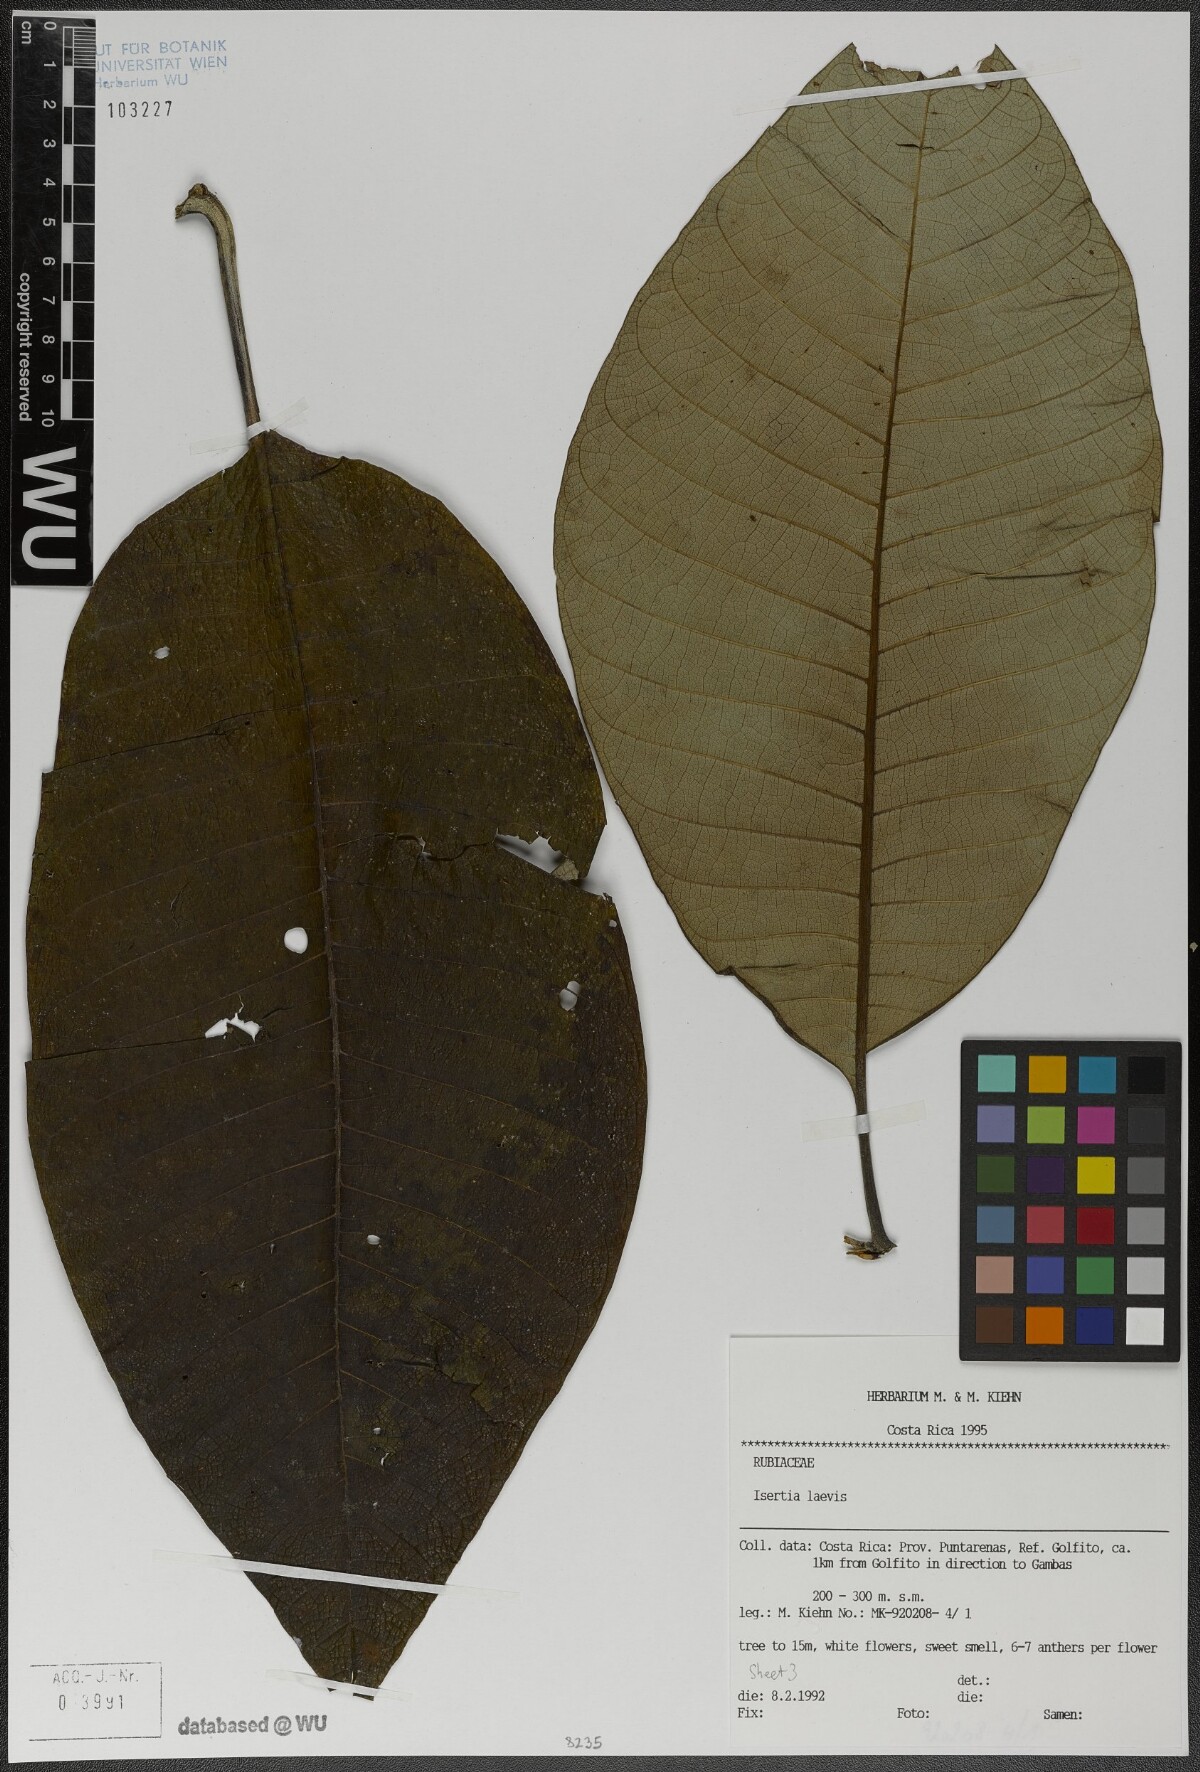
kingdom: Plantae
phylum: Tracheophyta
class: Magnoliopsida
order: Gentianales
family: Rubiaceae
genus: Isertia
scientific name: Isertia laevis
